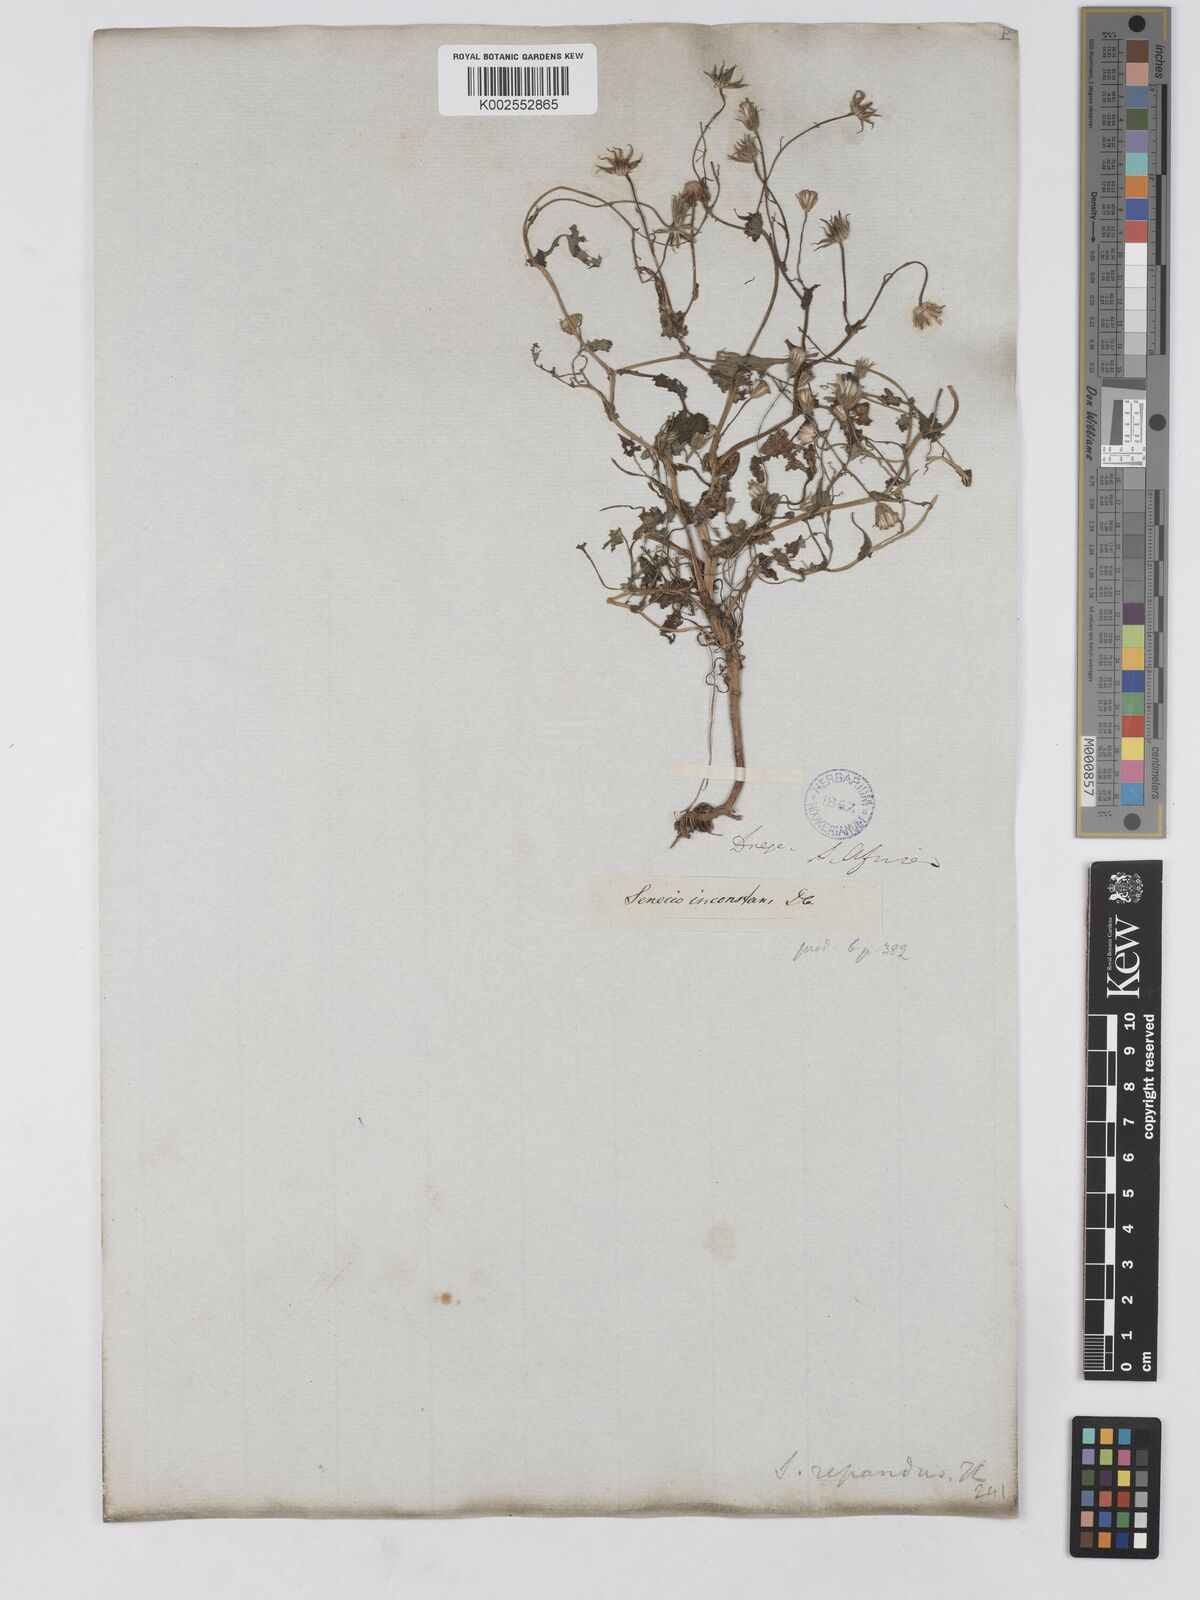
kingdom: Plantae
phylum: Tracheophyta
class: Magnoliopsida
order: Asterales
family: Asteraceae
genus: Senecio
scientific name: Senecio repandus
